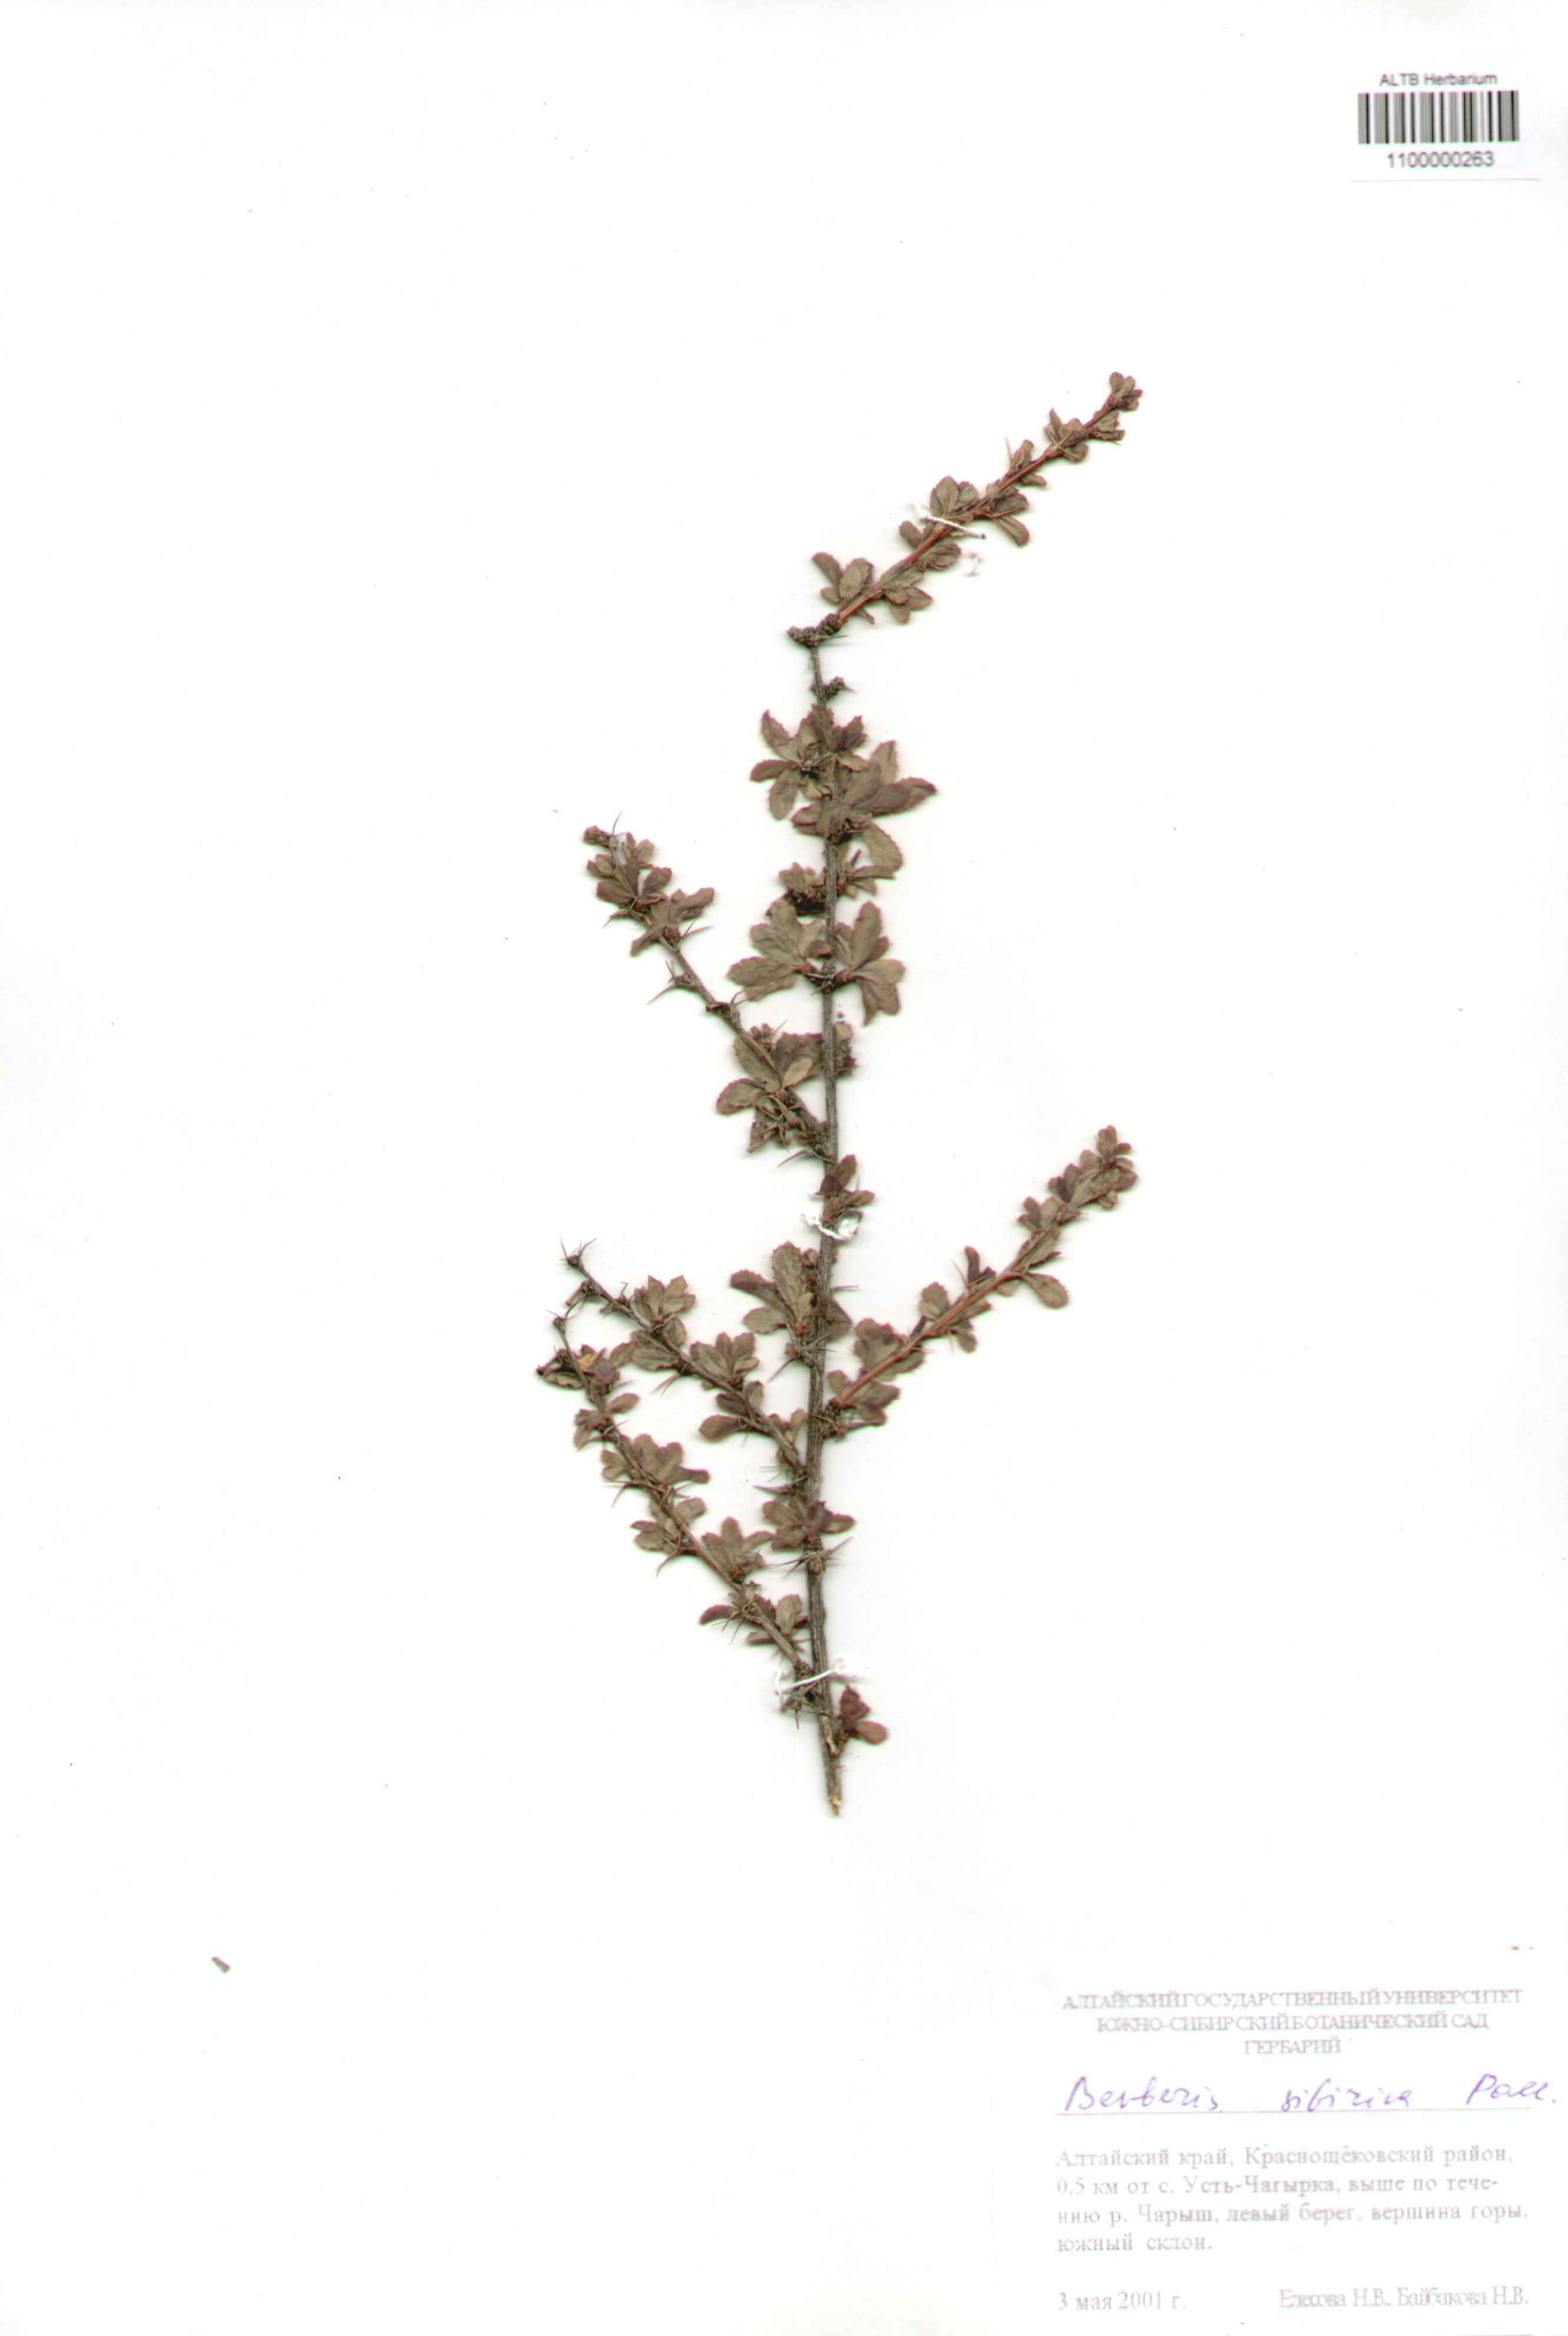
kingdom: Plantae
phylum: Tracheophyta
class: Magnoliopsida
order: Ranunculales
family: Berberidaceae
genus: Berberis
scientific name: Berberis sibirica
